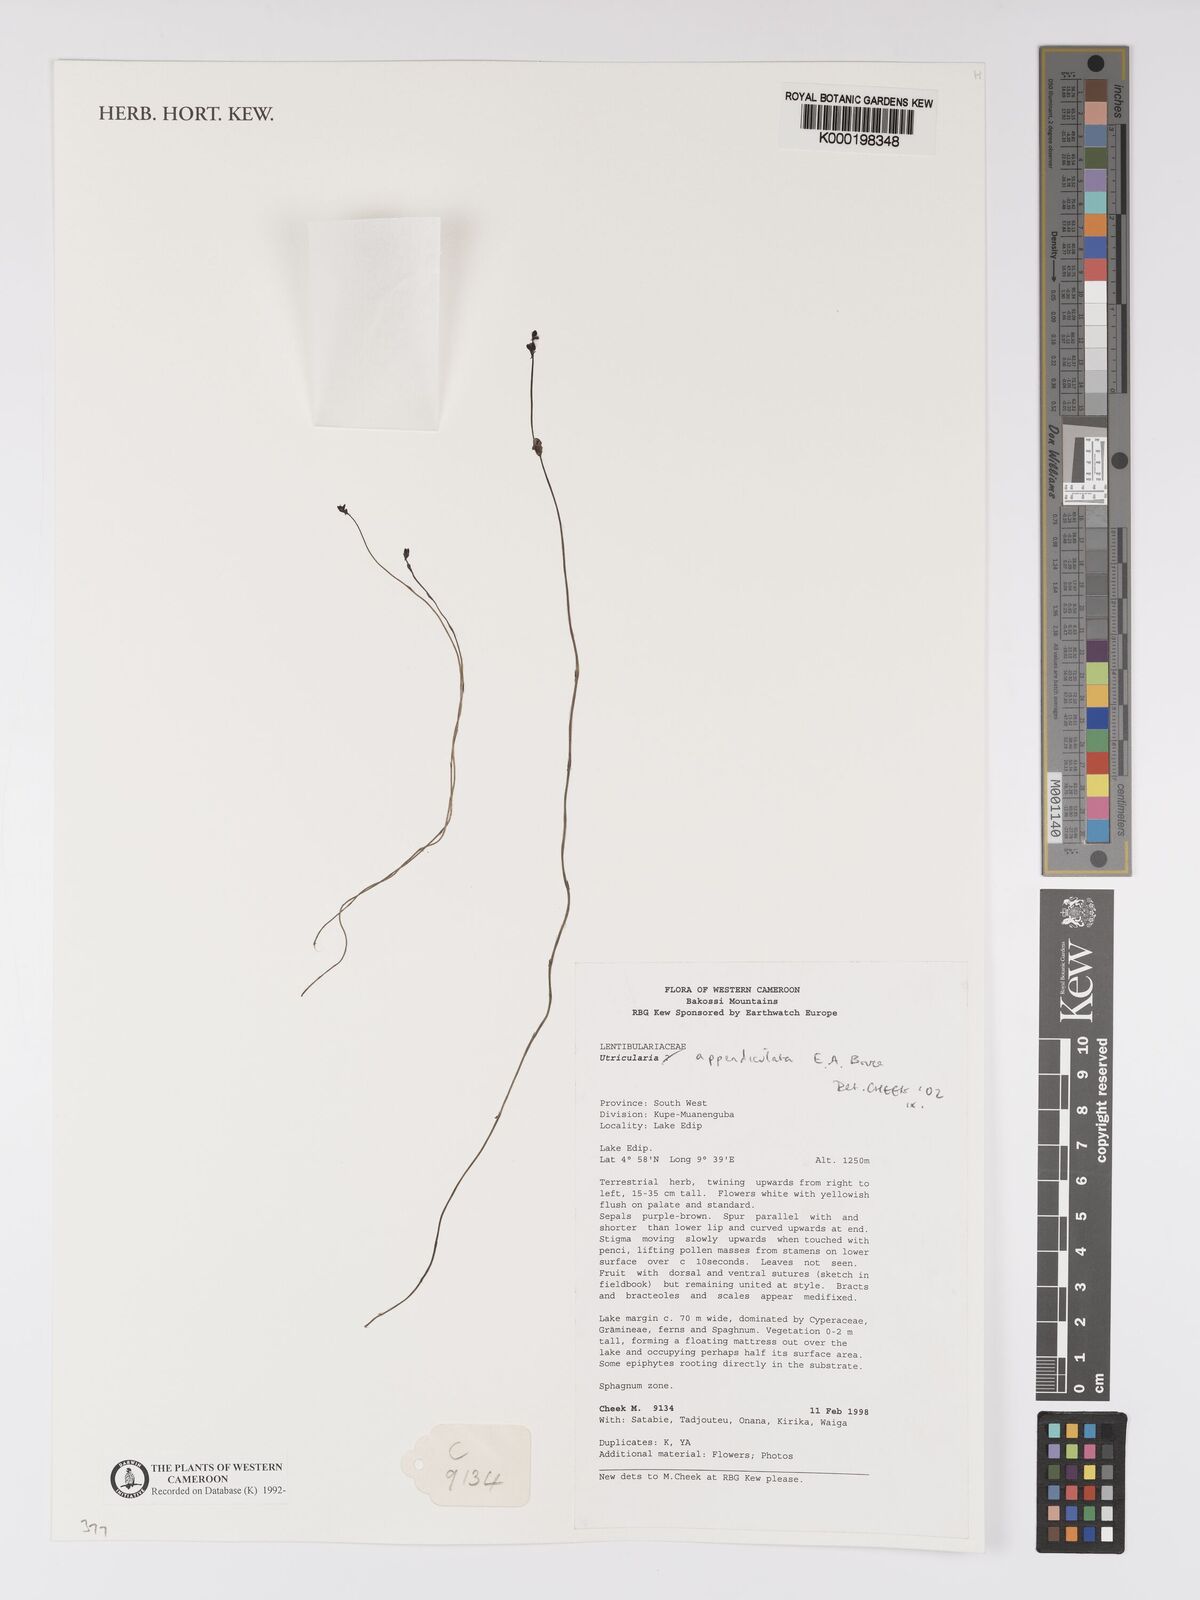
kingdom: Plantae
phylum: Tracheophyta
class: Magnoliopsida
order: Lamiales
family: Lentibulariaceae
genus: Utricularia
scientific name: Utricularia appendiculata
